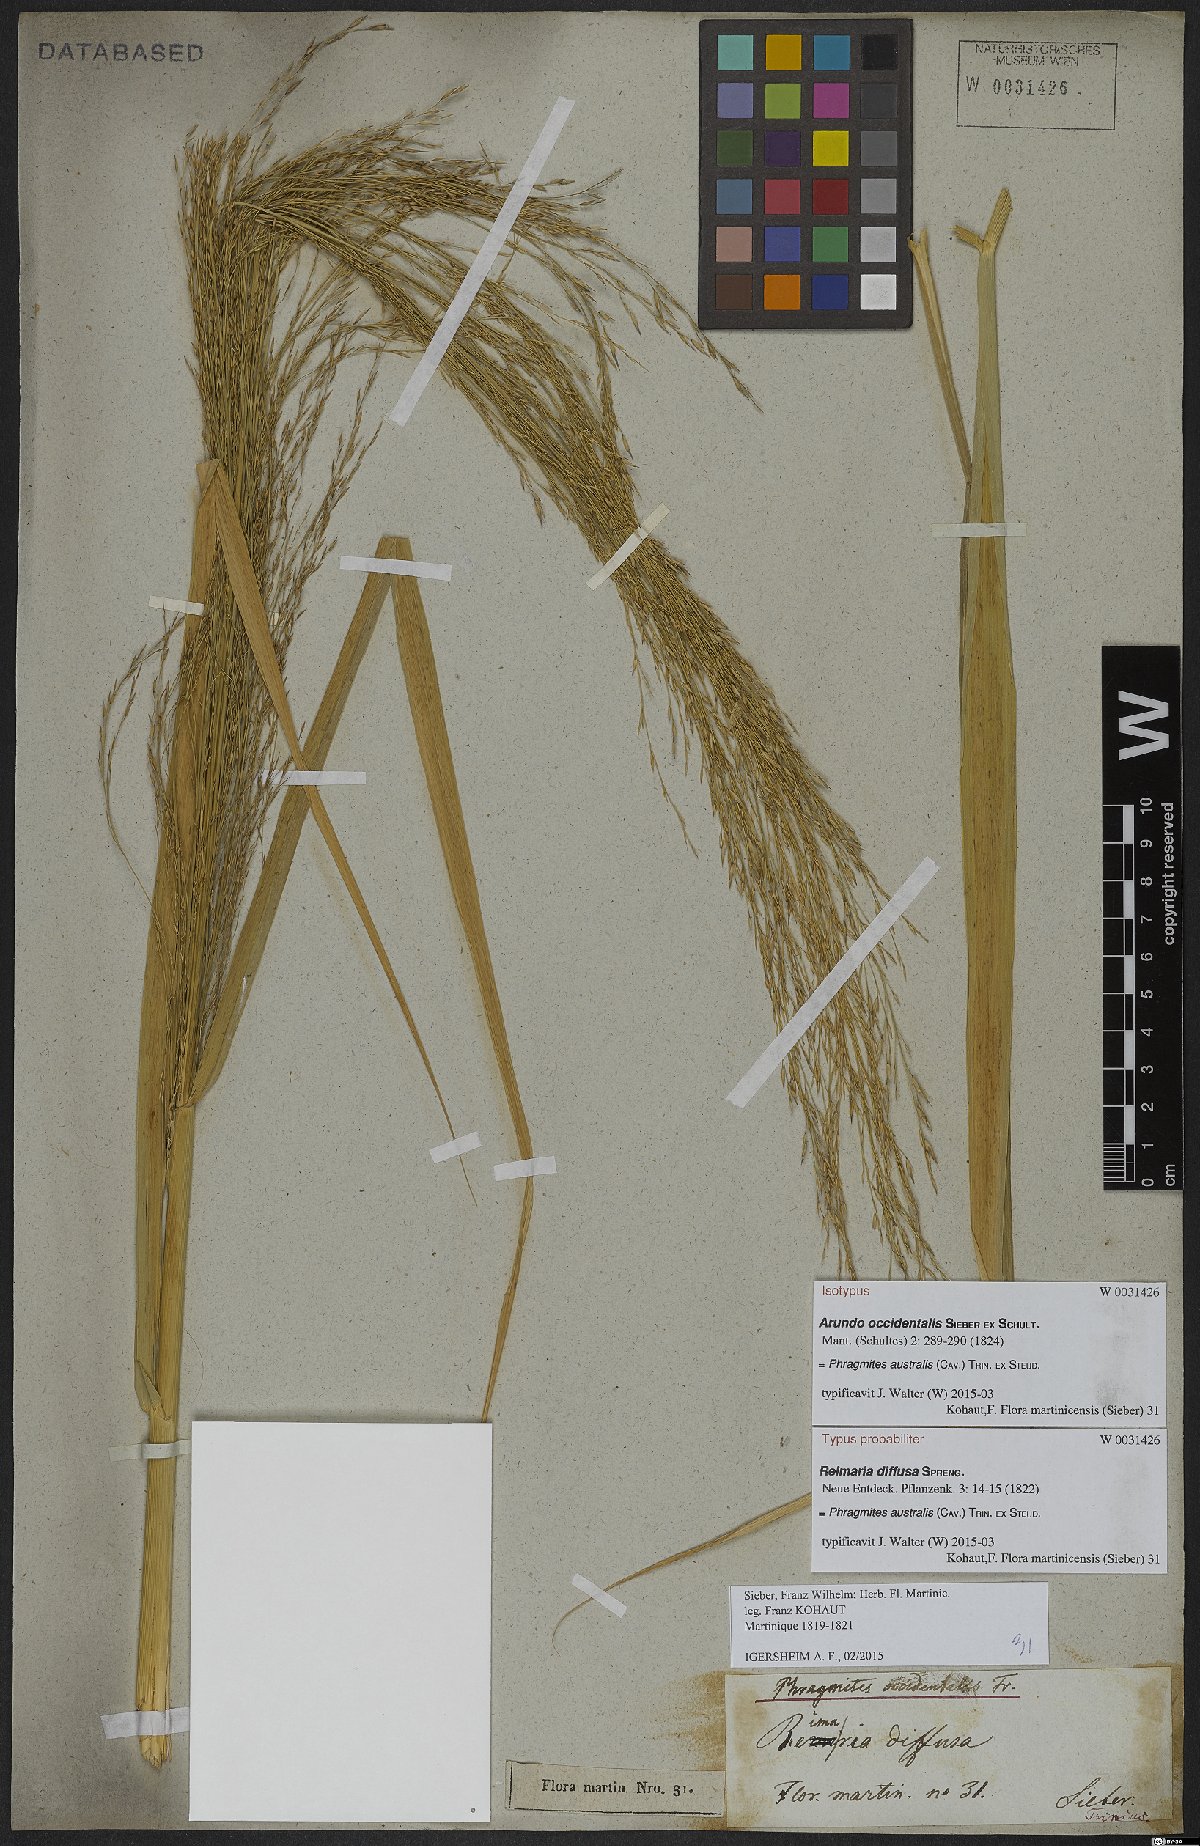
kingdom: Plantae
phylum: Tracheophyta
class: Liliopsida
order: Poales
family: Poaceae
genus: Phragmites
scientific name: Phragmites australis
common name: Common reed
